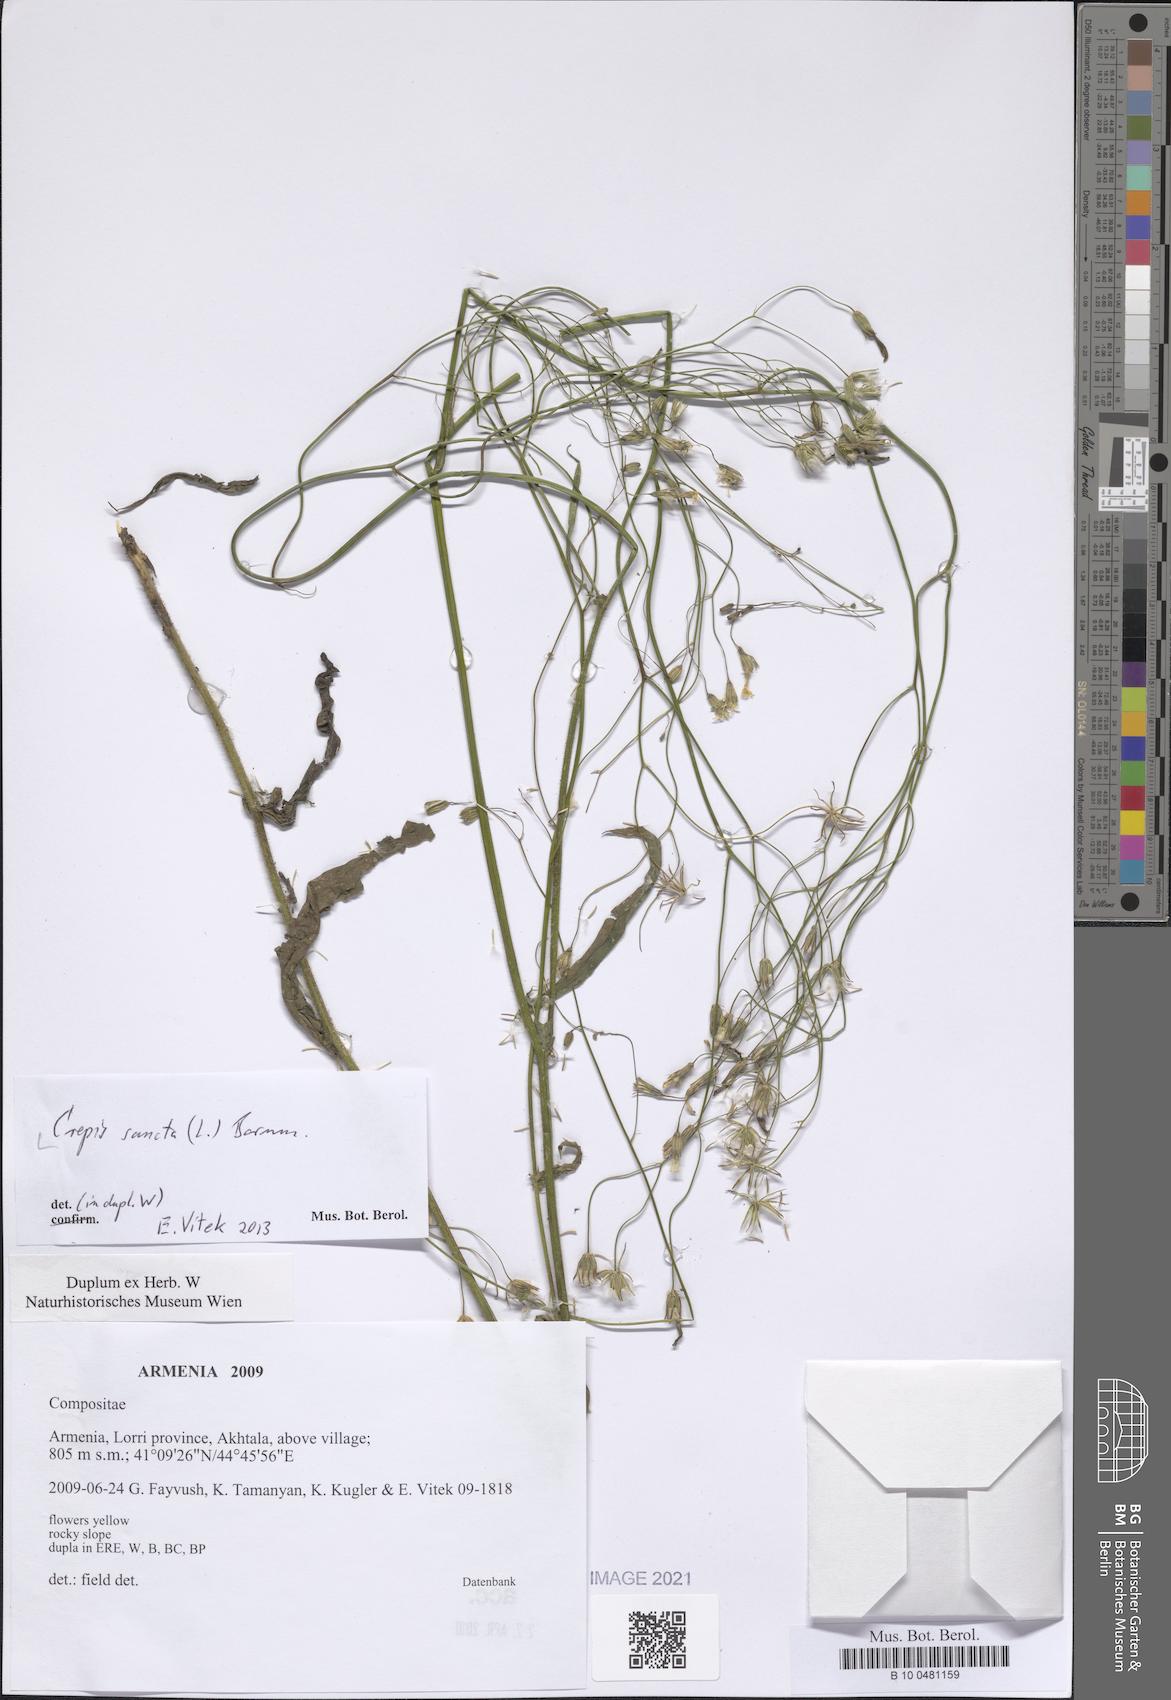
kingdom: Plantae
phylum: Tracheophyta
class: Magnoliopsida
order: Asterales
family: Asteraceae
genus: Crepis
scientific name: Crepis sancta
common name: Hawk's-beard
